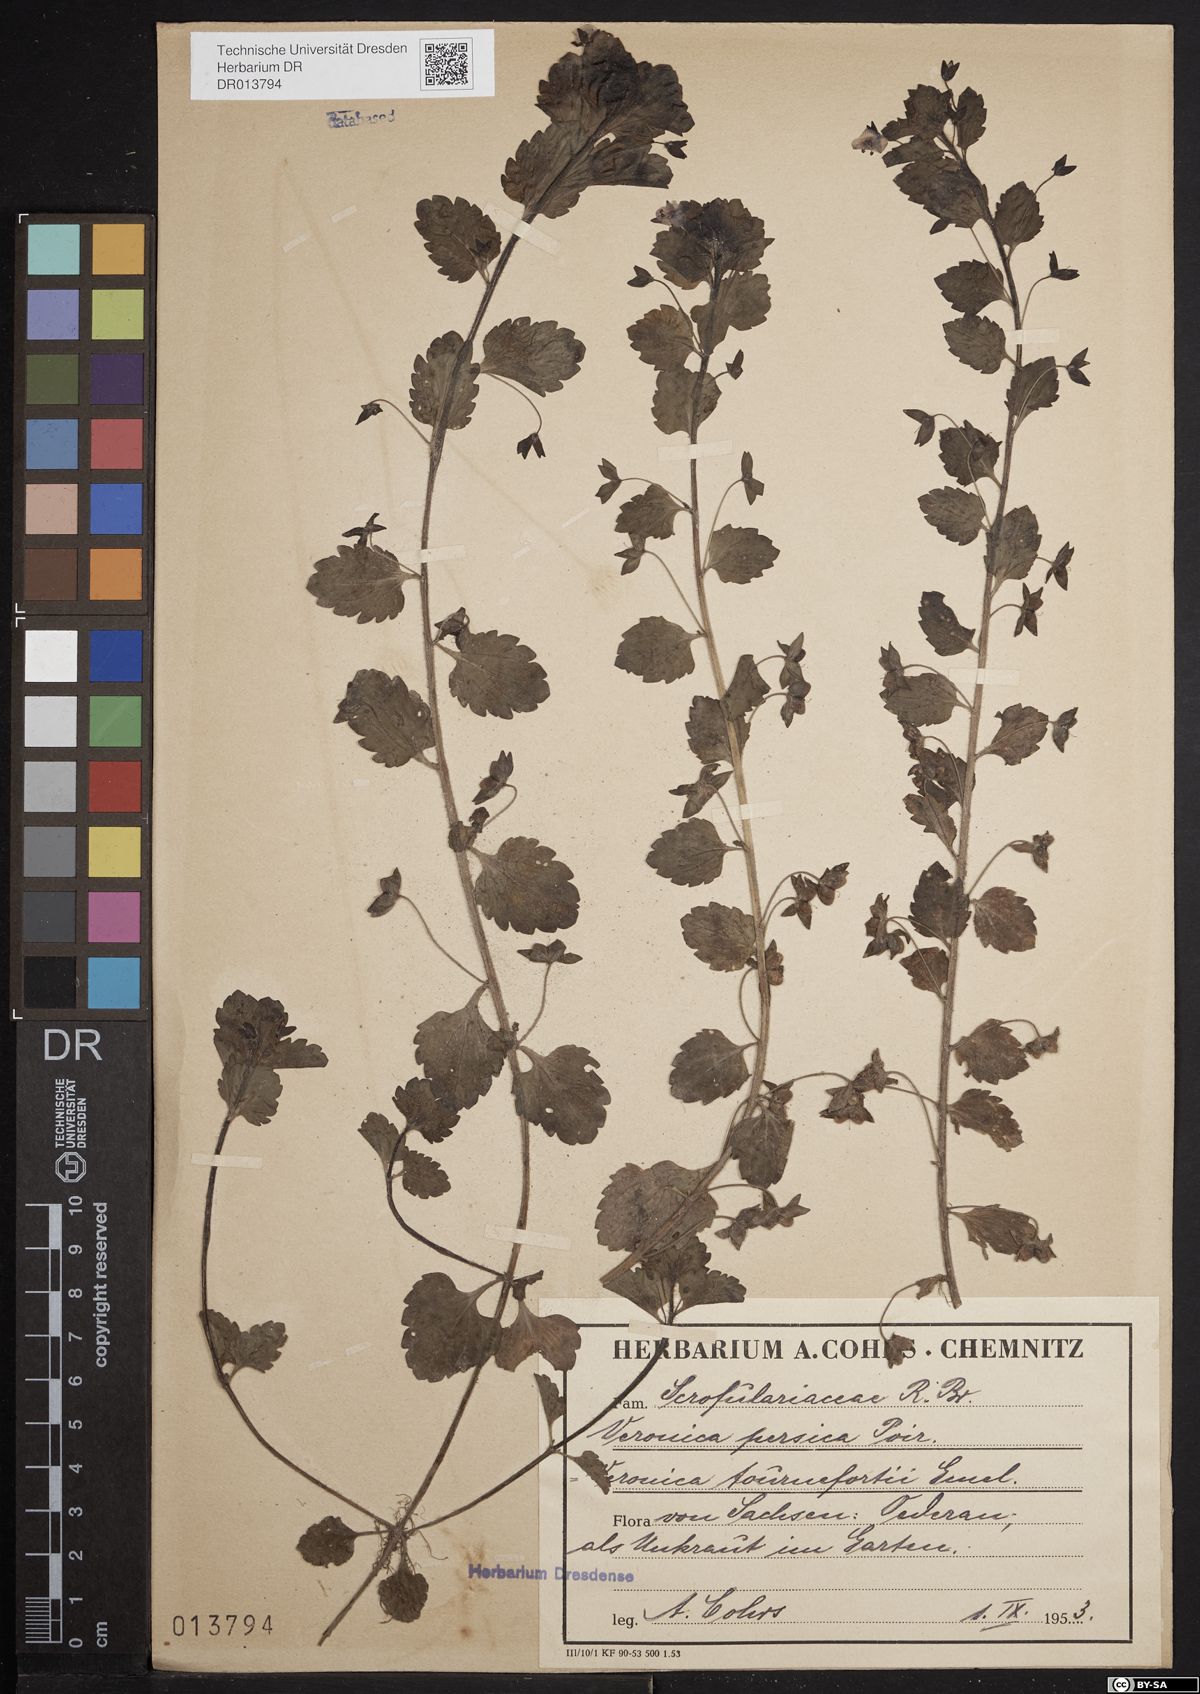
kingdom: Plantae
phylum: Tracheophyta
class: Magnoliopsida
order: Lamiales
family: Plantaginaceae
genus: Veronica
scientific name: Veronica persica
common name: Common field-speedwell
